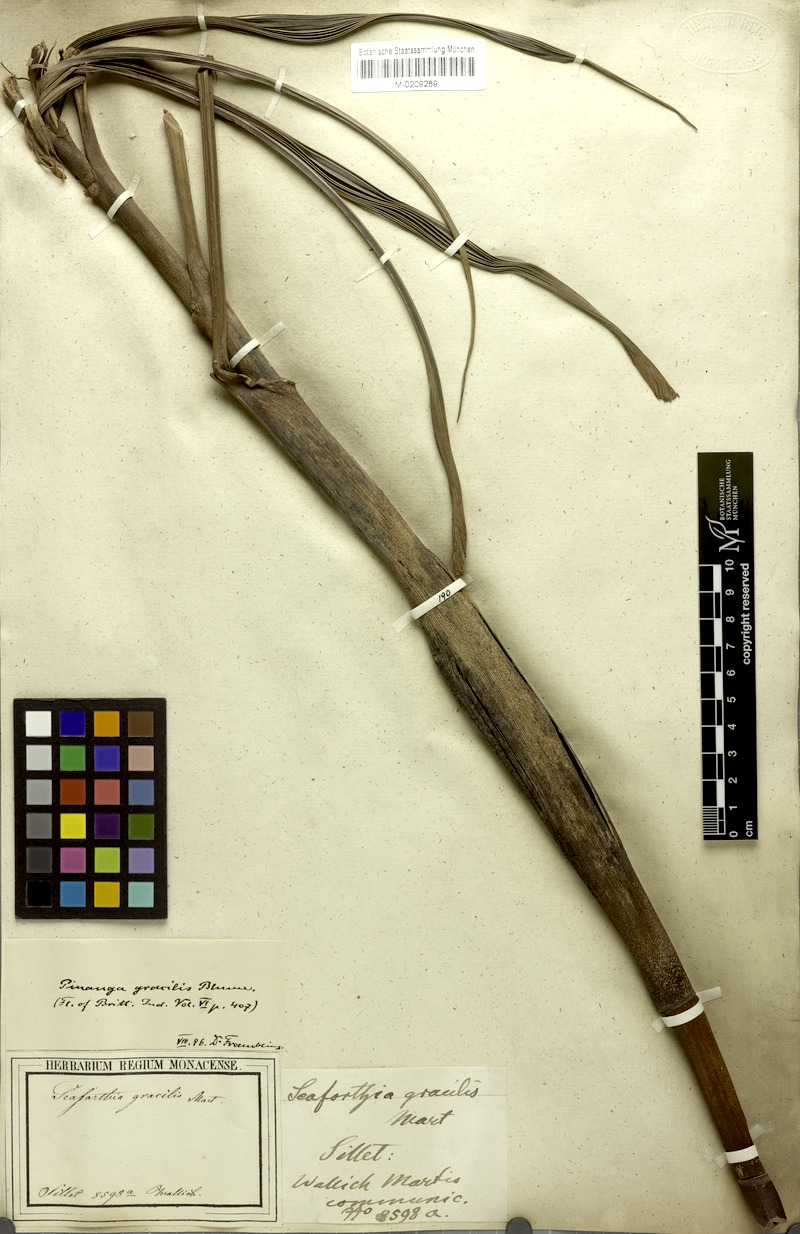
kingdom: Plantae
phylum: Tracheophyta
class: Liliopsida
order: Arecales
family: Arecaceae
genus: Pinanga
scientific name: Pinanga gracilis
